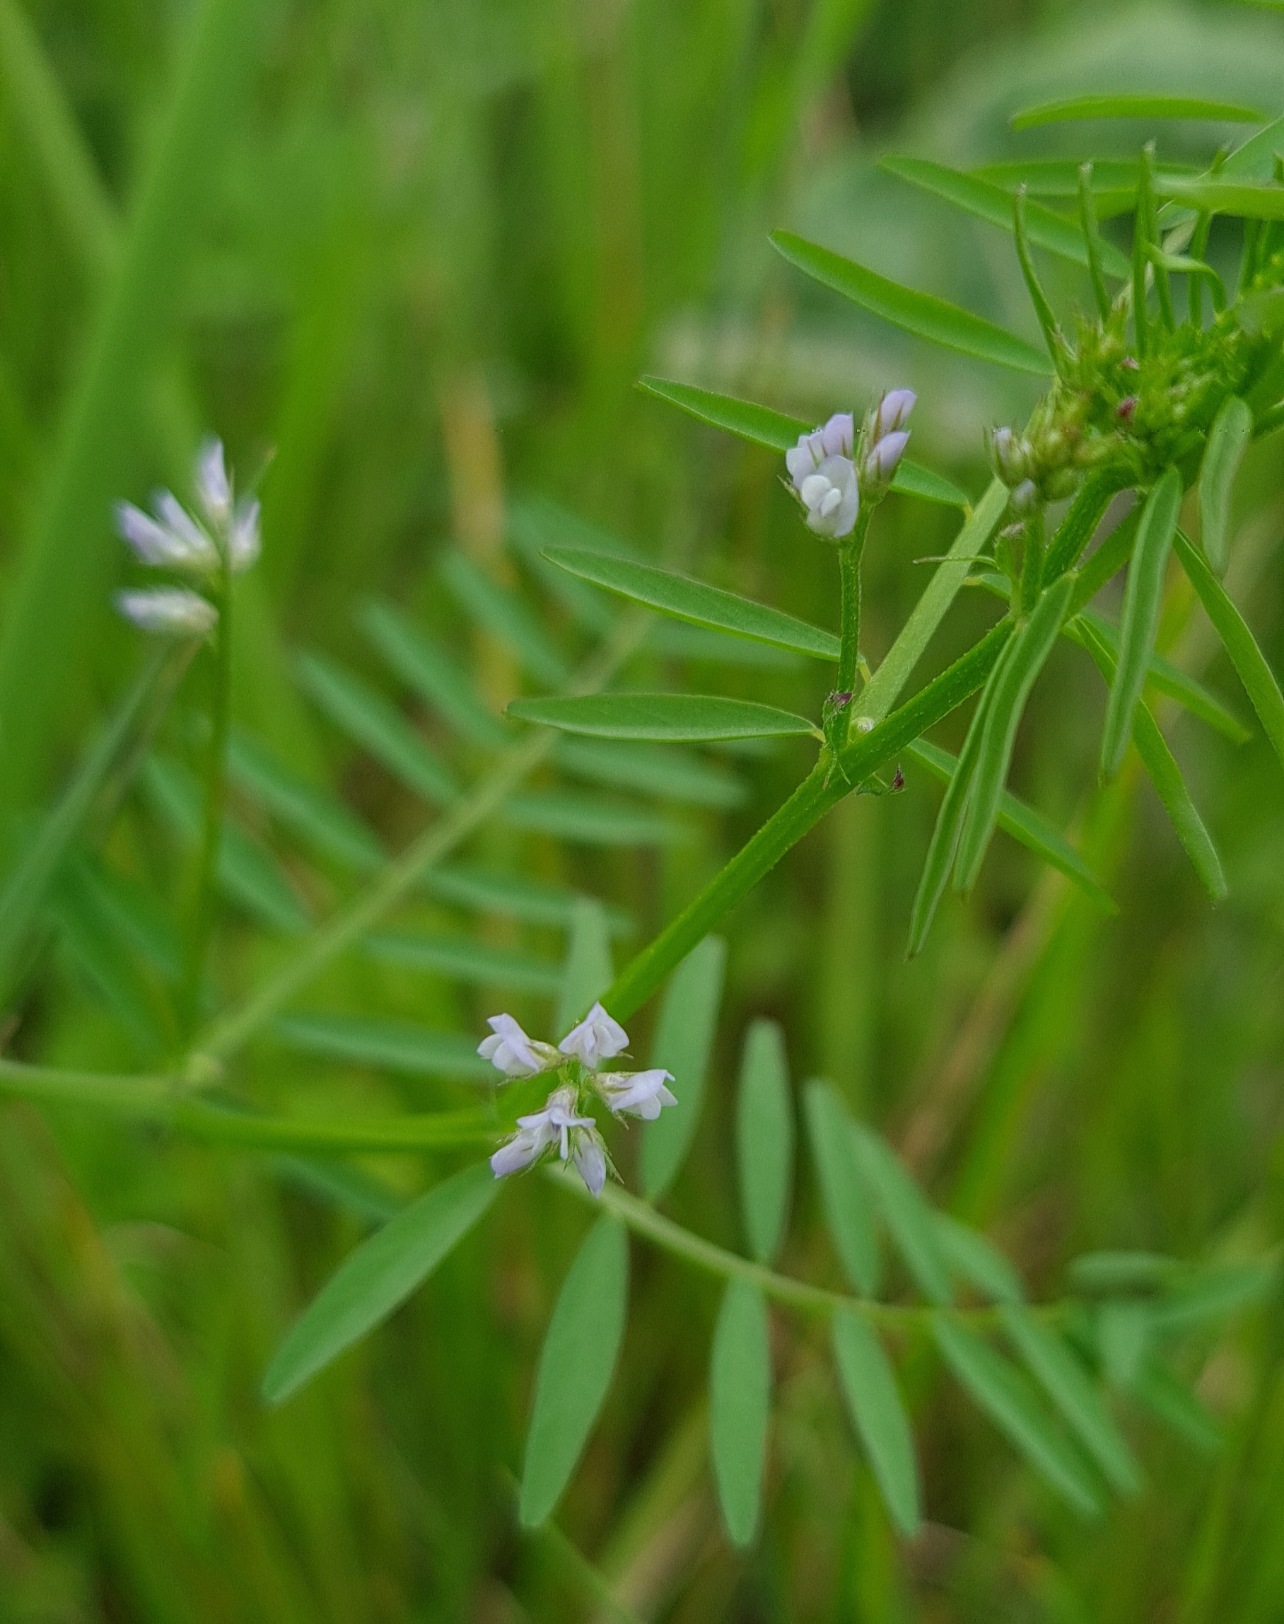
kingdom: Plantae
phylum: Tracheophyta
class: Magnoliopsida
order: Fabales
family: Fabaceae
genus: Vicia
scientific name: Vicia hirsuta
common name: Tofrøet vikke
